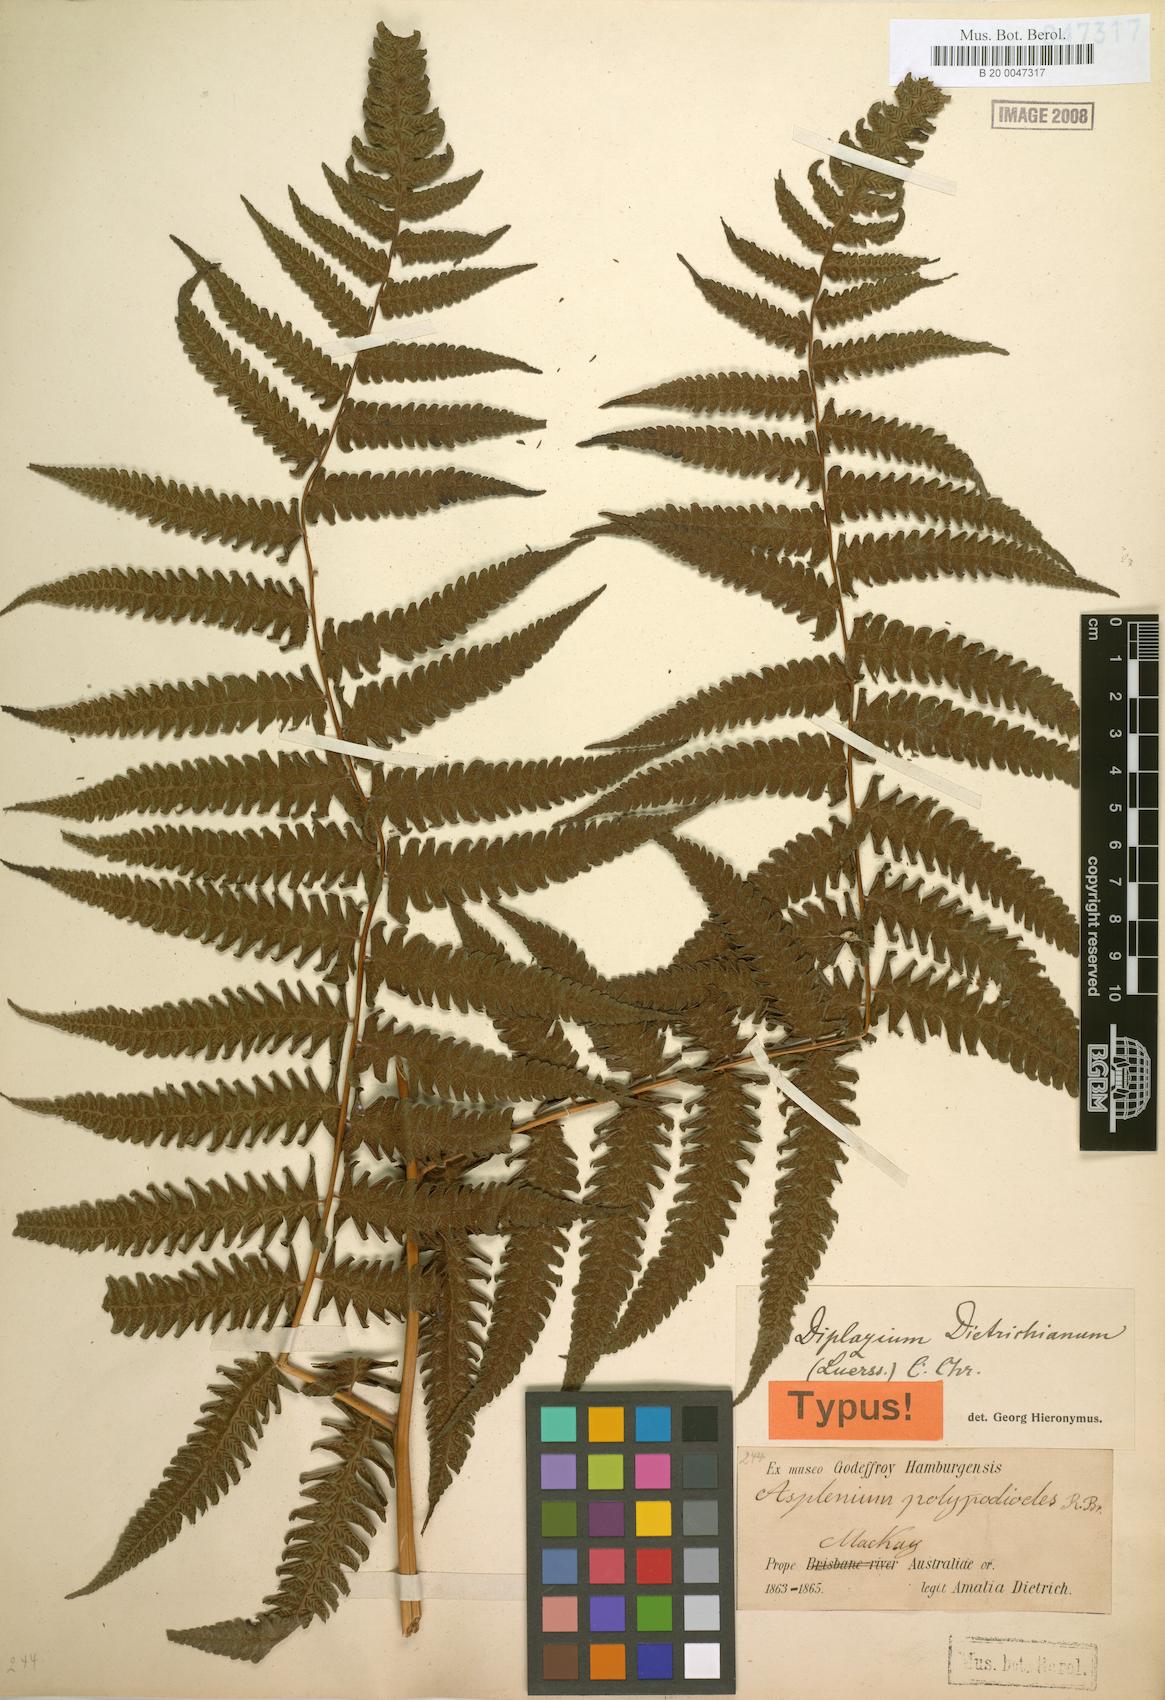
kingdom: Plantae
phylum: Tracheophyta
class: Polypodiopsida
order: Polypodiales
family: Athyriaceae
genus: Diplazium
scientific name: Diplazium dietrichianum
